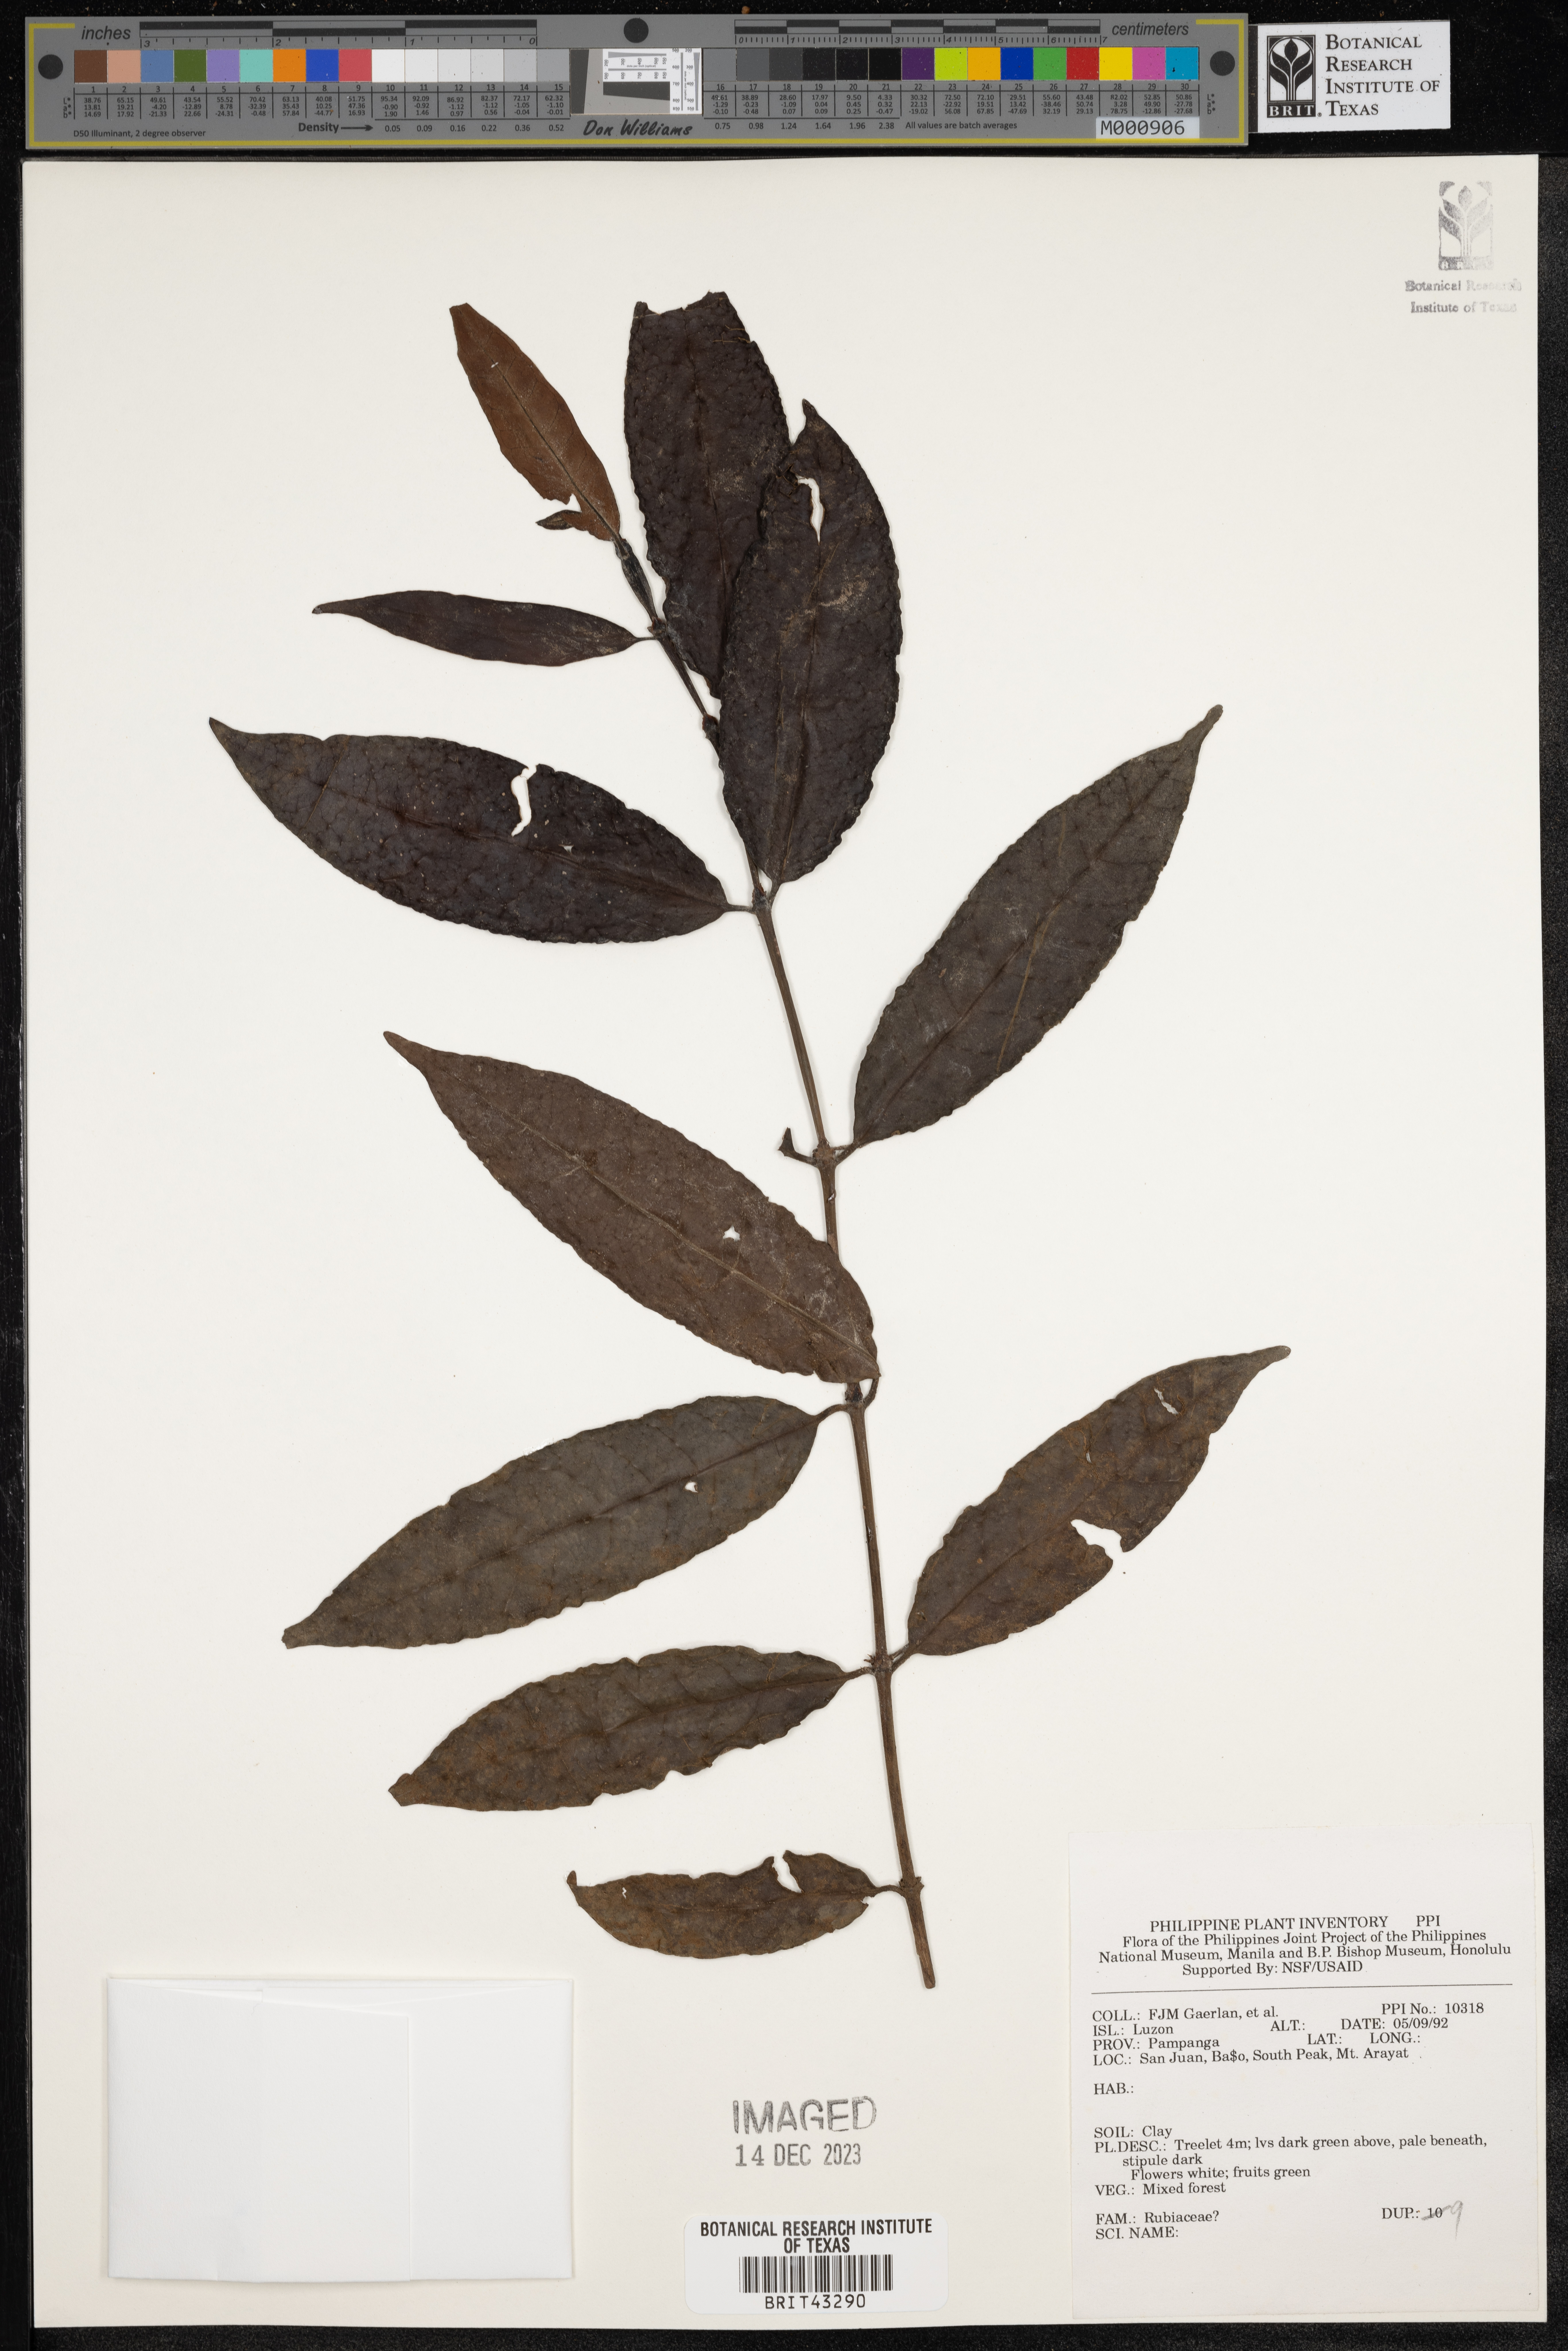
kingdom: Plantae
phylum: Tracheophyta
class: Magnoliopsida
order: Gentianales
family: Rubiaceae
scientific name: Rubiaceae
